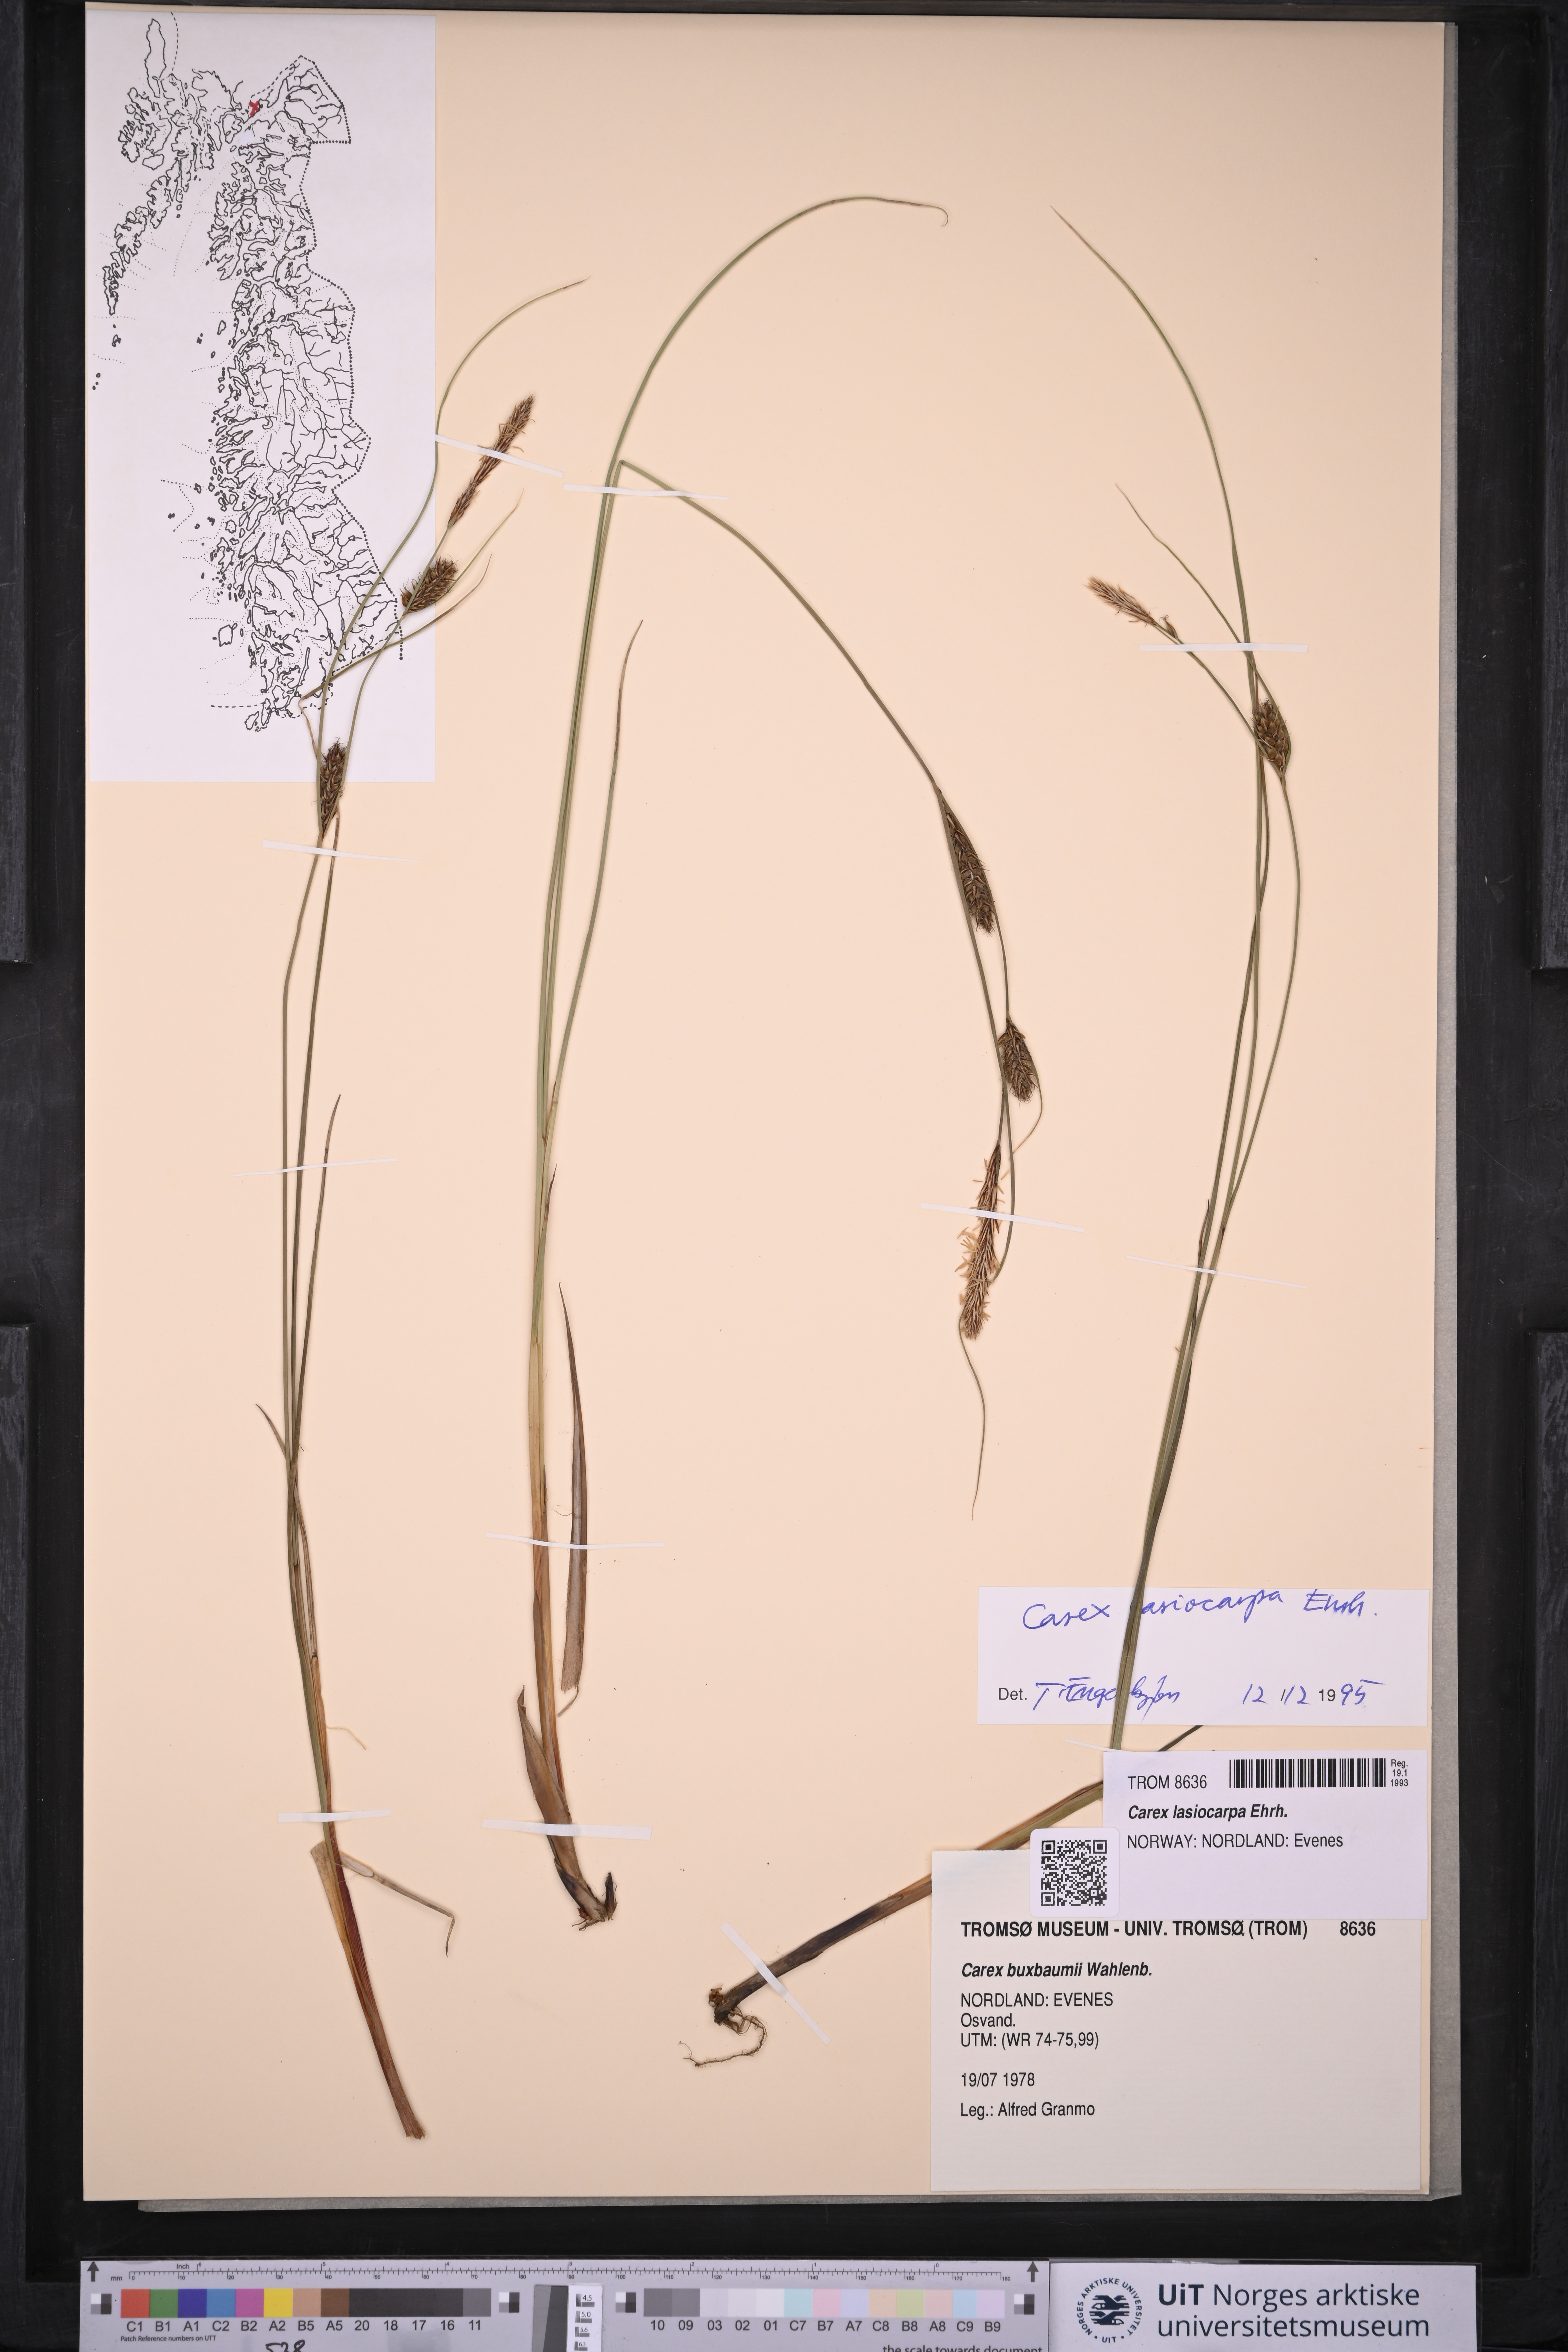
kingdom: Plantae
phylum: Tracheophyta
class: Liliopsida
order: Poales
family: Cyperaceae
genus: Carex
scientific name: Carex lasiocarpa
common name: Slender sedge
